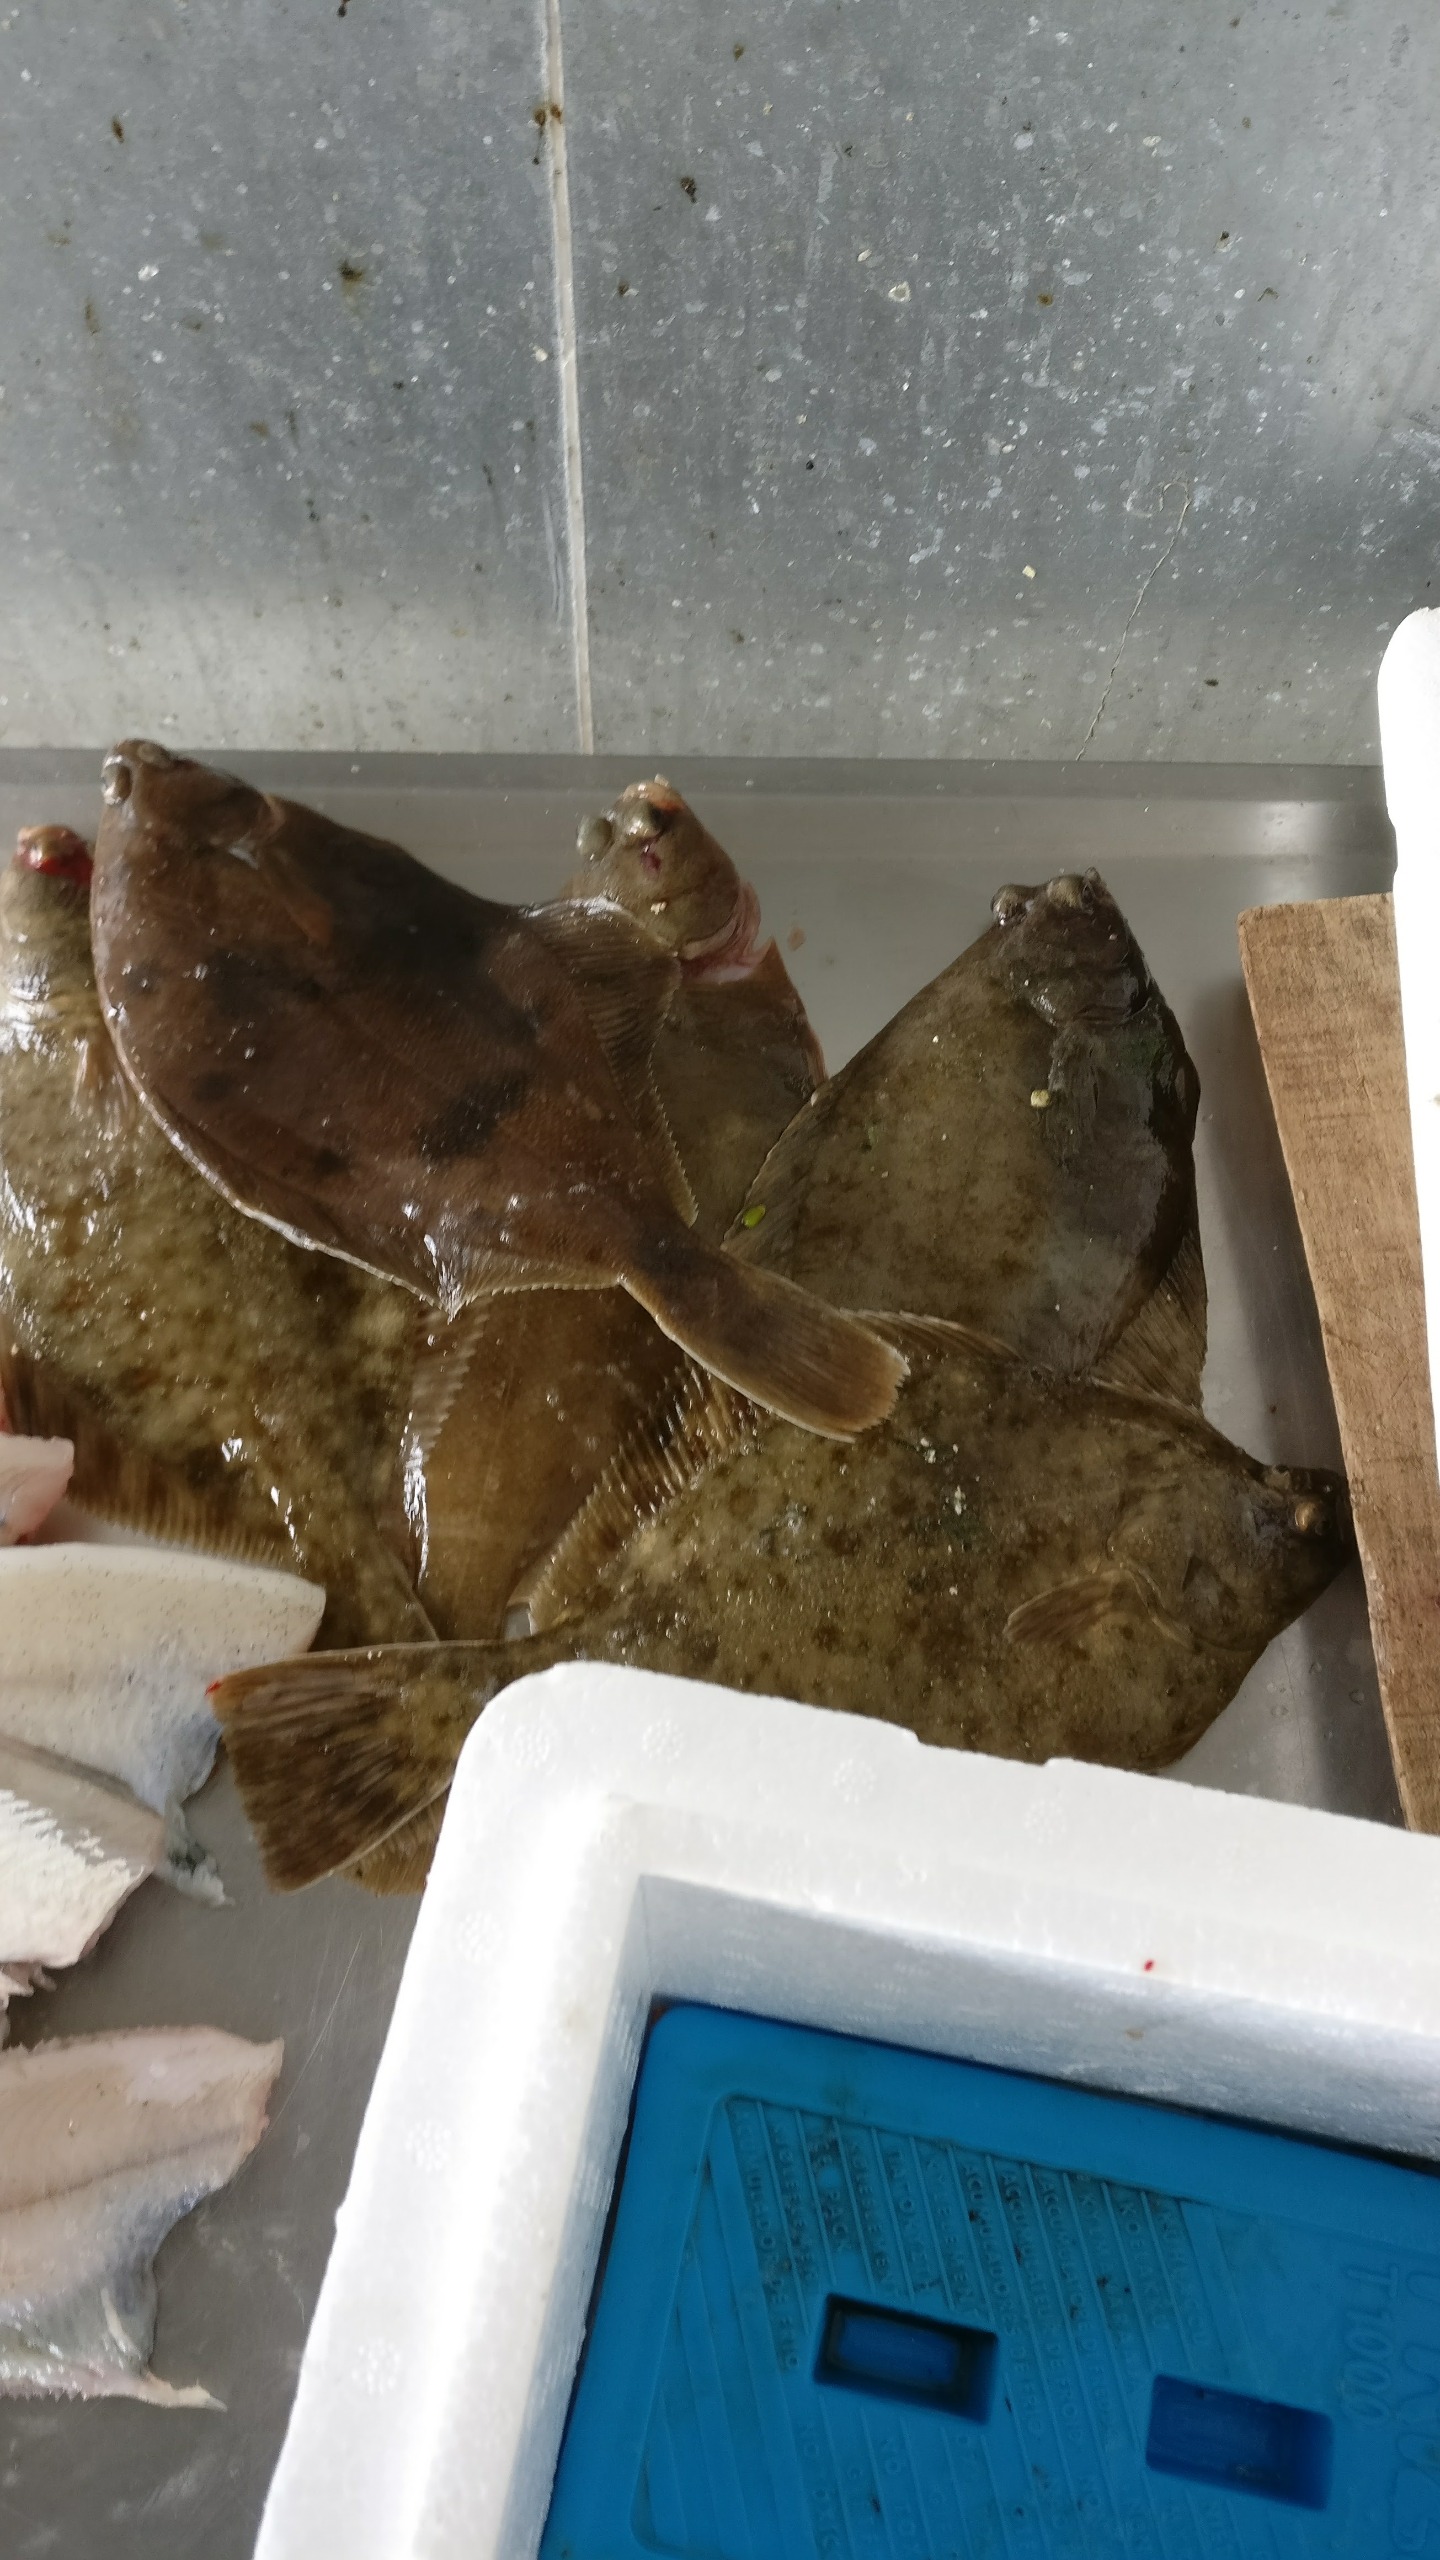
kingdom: Animalia
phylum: Chordata
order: Pleuronectiformes
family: Pleuronectidae
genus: Limanda
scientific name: Limanda limanda
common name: Ising
